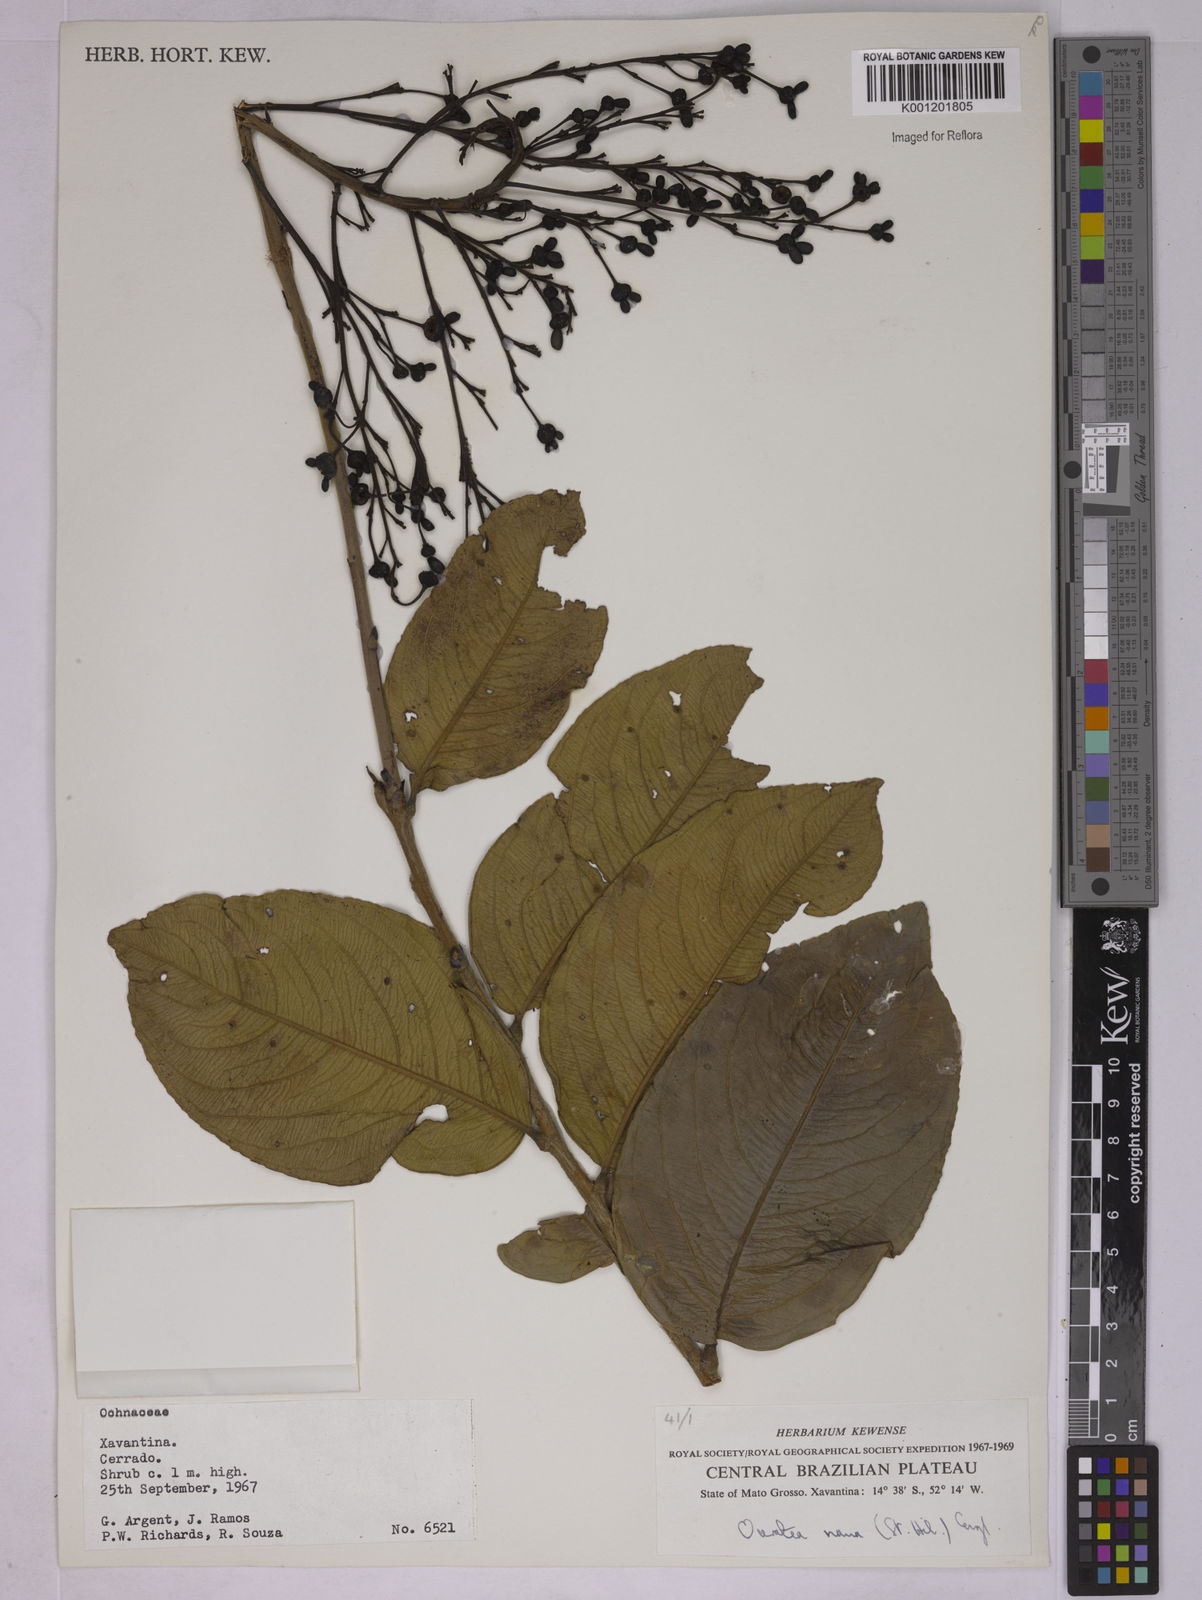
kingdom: Plantae
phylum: Tracheophyta
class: Magnoliopsida
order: Malpighiales
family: Ochnaceae
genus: Ouratea
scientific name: Ouratea nana
